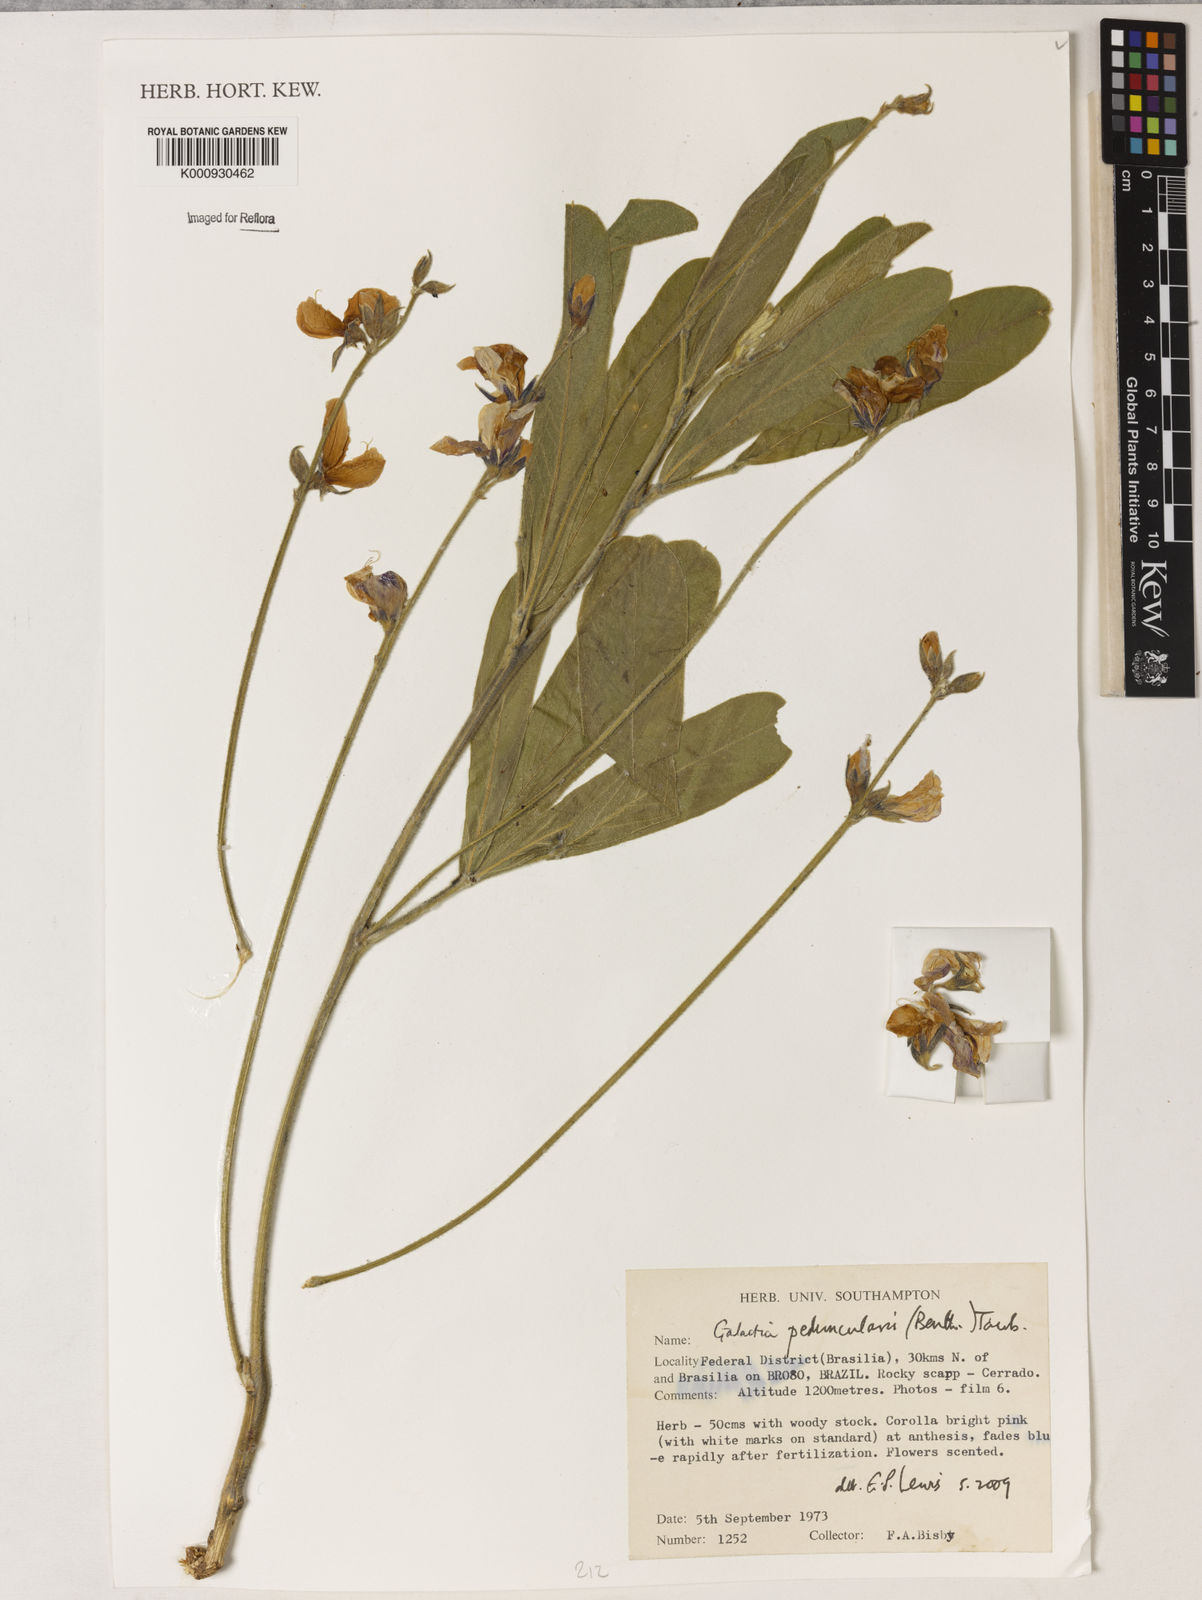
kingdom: Plantae
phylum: Tracheophyta
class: Magnoliopsida
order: Fabales
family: Fabaceae
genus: Galactia
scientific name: Galactia
